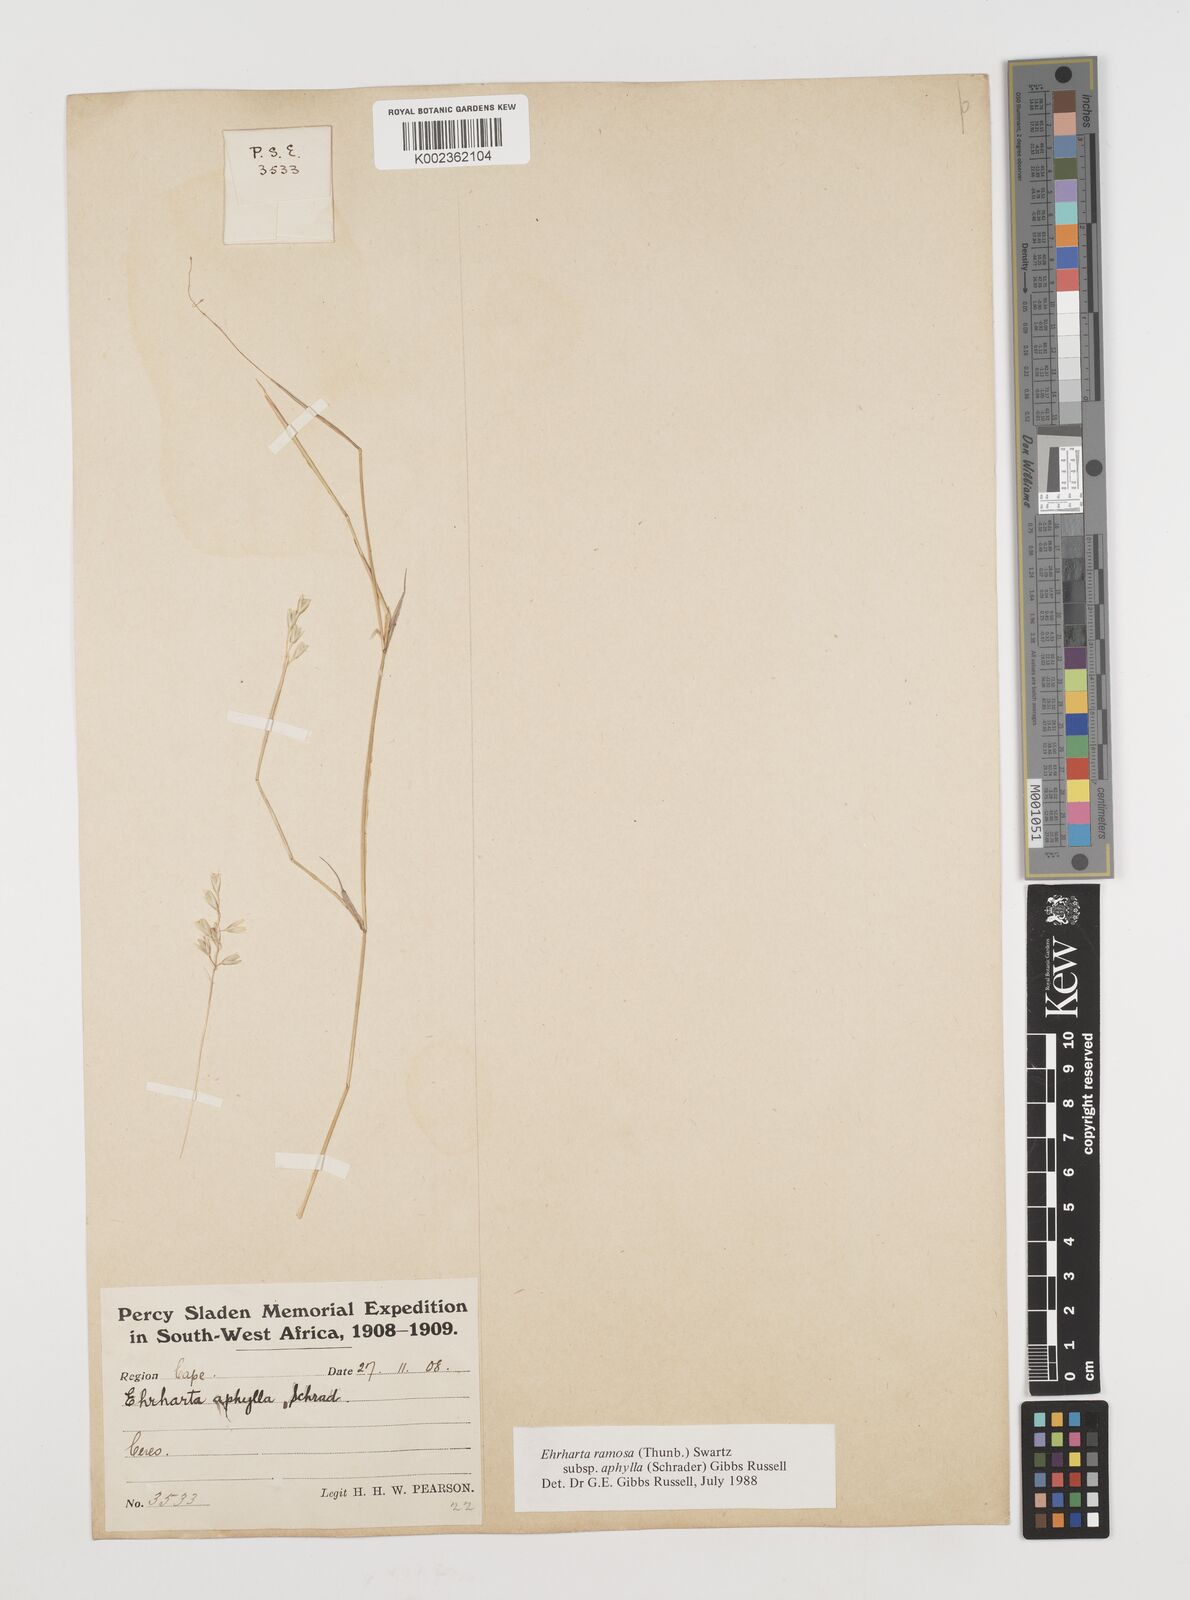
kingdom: Plantae
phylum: Tracheophyta
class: Liliopsida
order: Poales
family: Poaceae
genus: Ehrharta
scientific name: Ehrharta digyna
